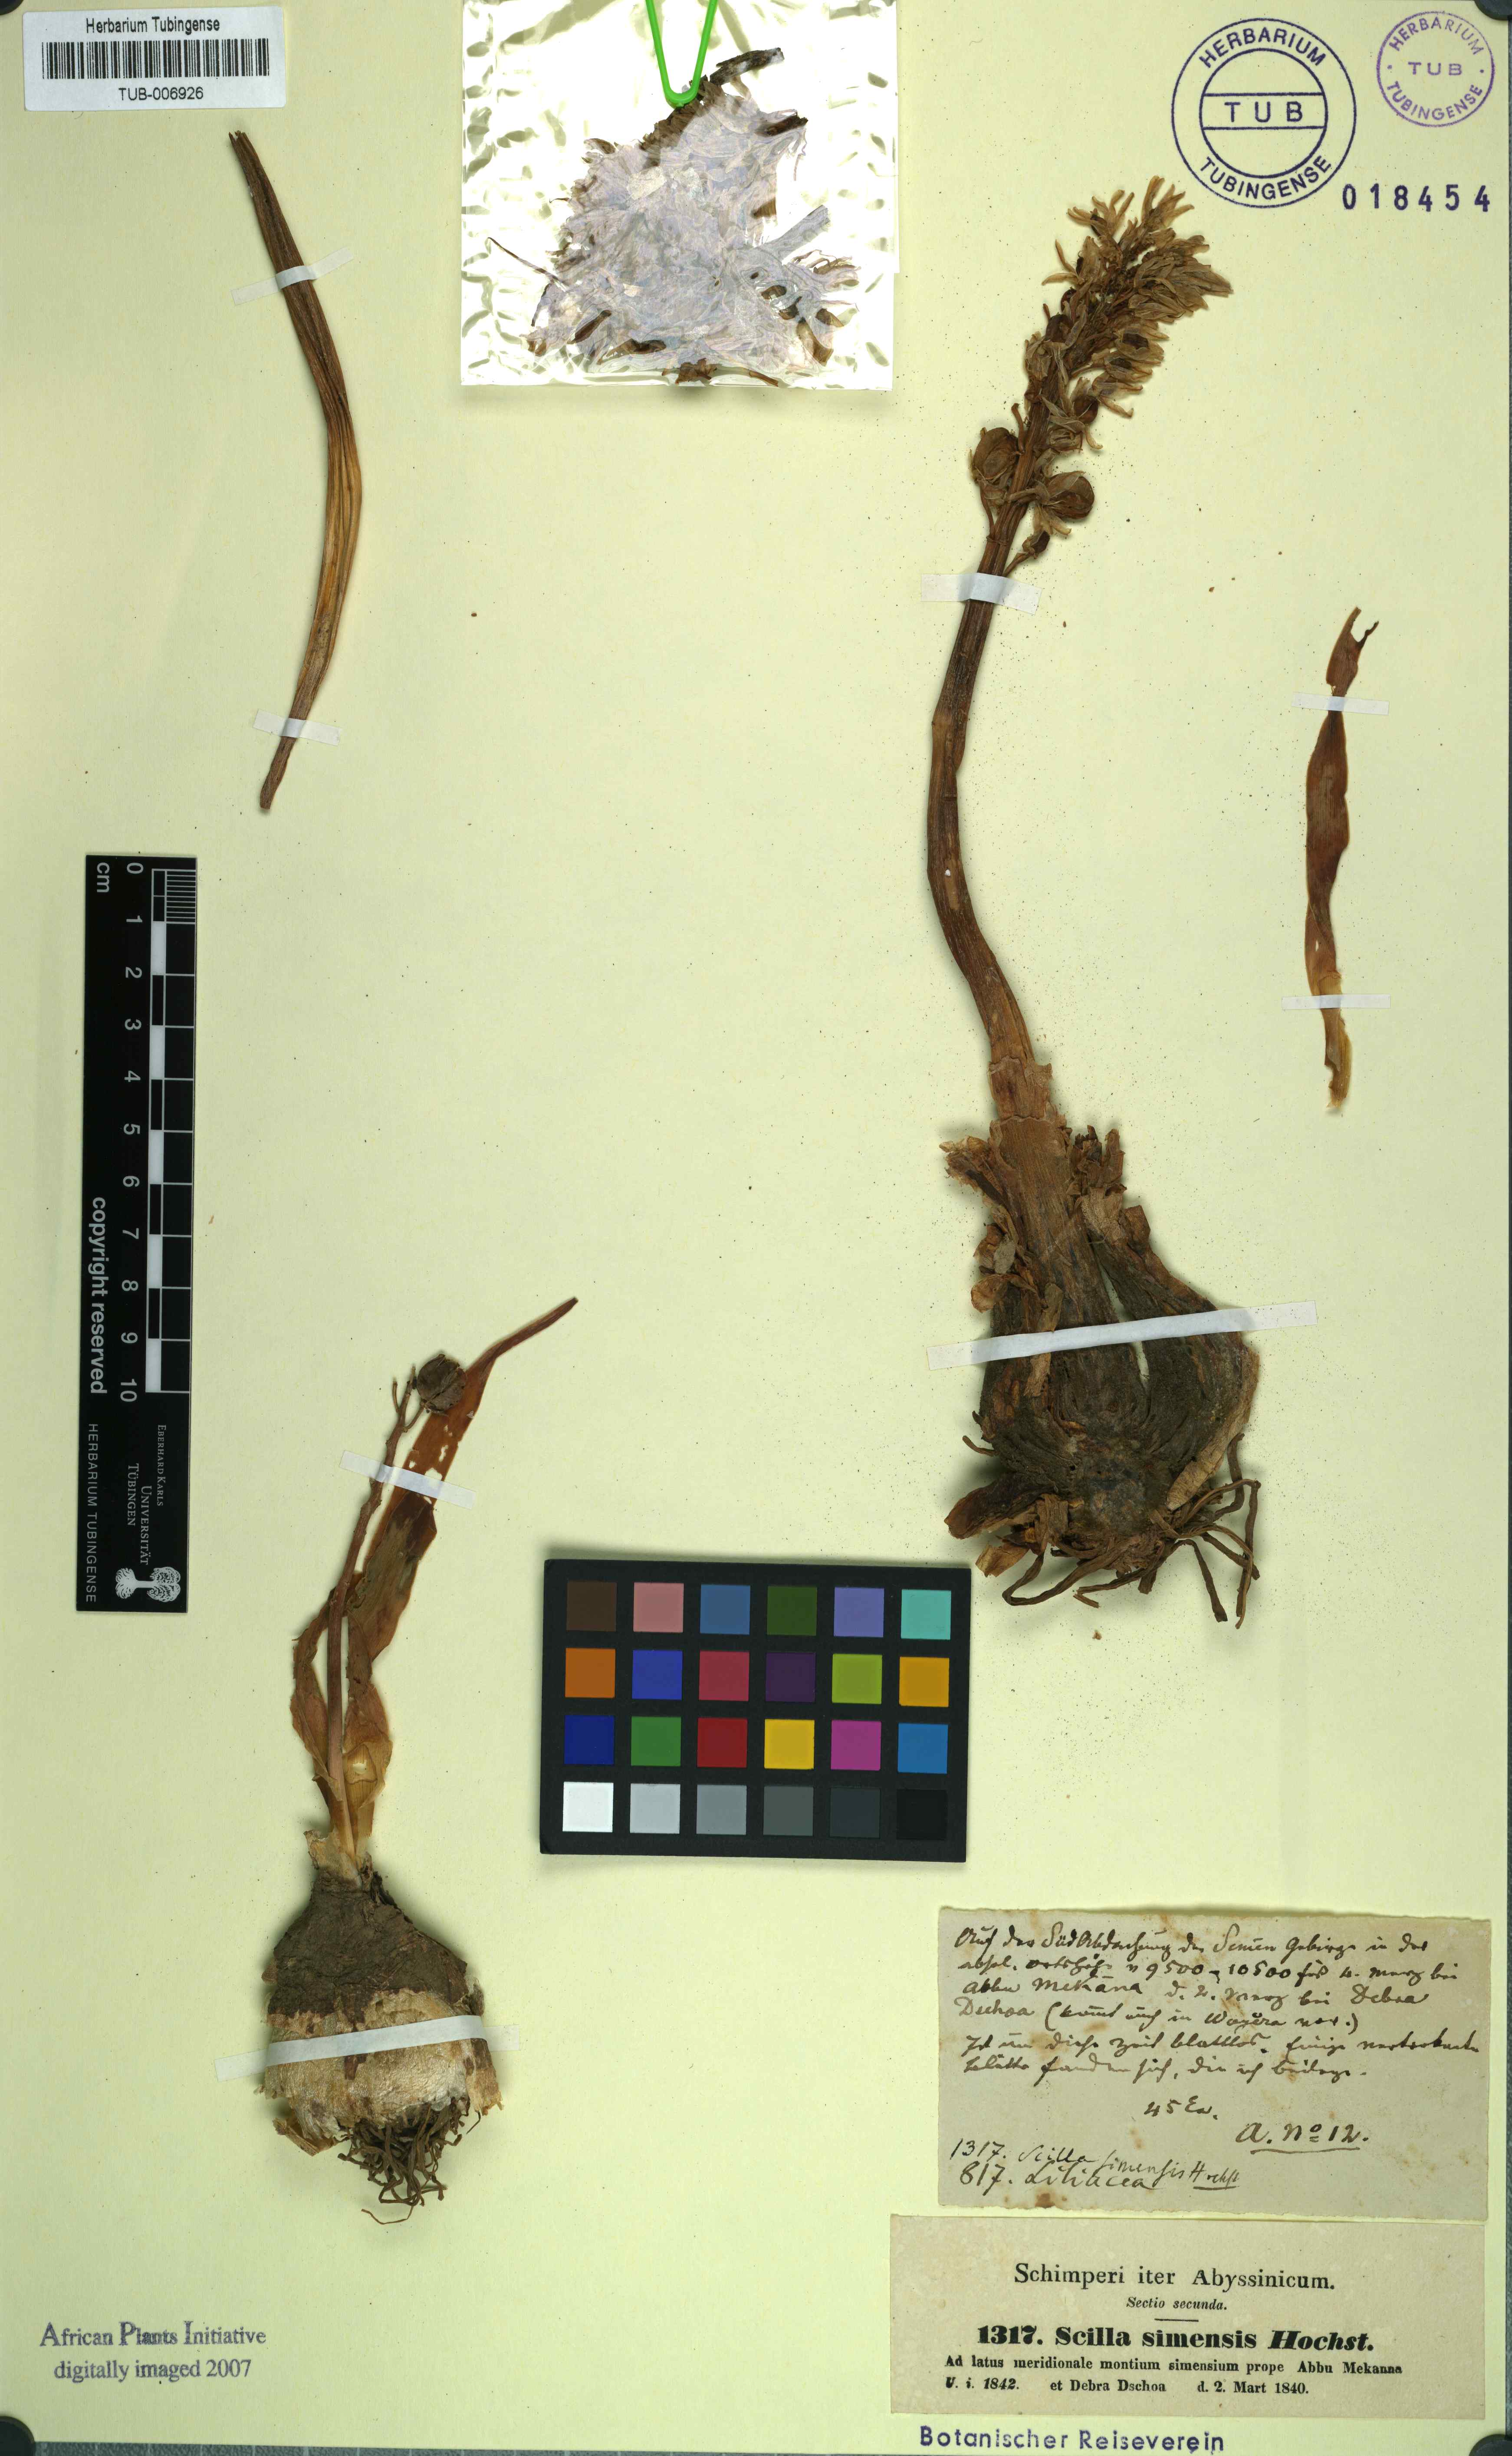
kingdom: Plantae
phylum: Tracheophyta
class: Liliopsida
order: Asparagales
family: Asparagaceae
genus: Drimia
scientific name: Drimia simensis
